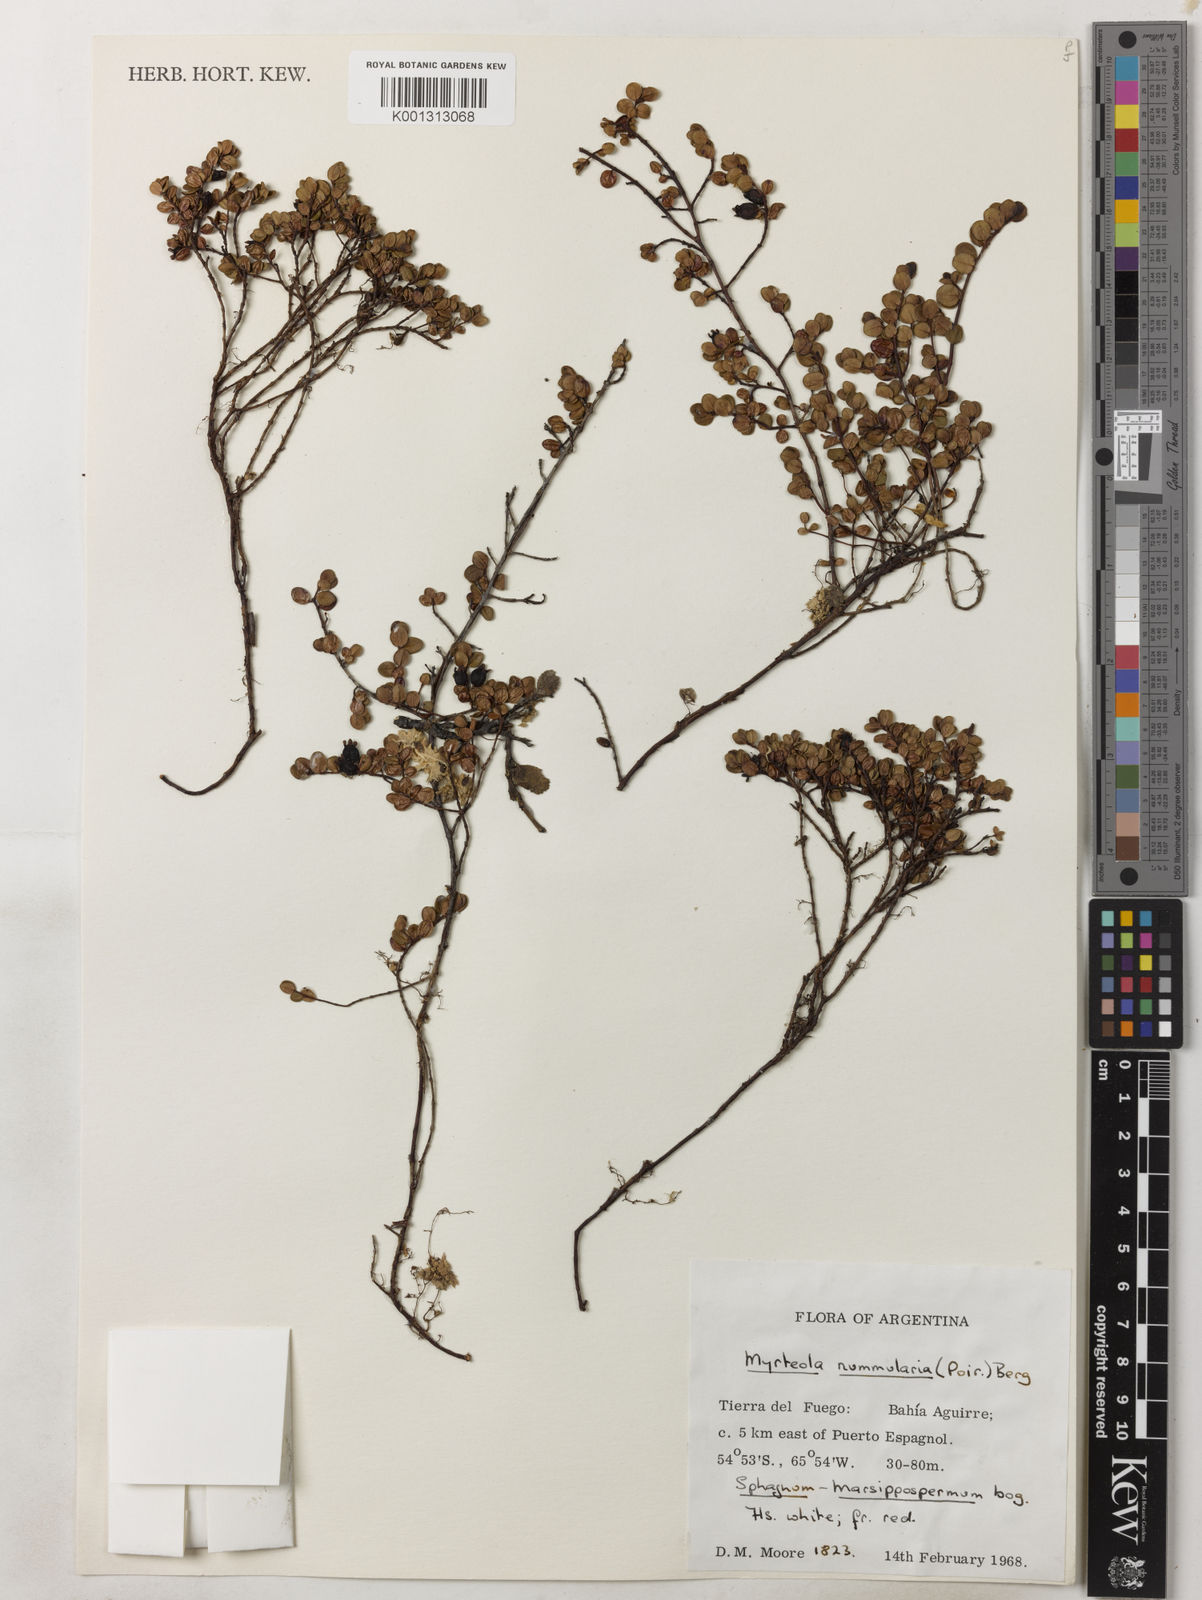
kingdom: Plantae
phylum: Tracheophyta
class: Magnoliopsida
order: Myrtales
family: Myrtaceae
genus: Myrteola
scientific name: Myrteola nummularia
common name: Cranberry-myrtle
